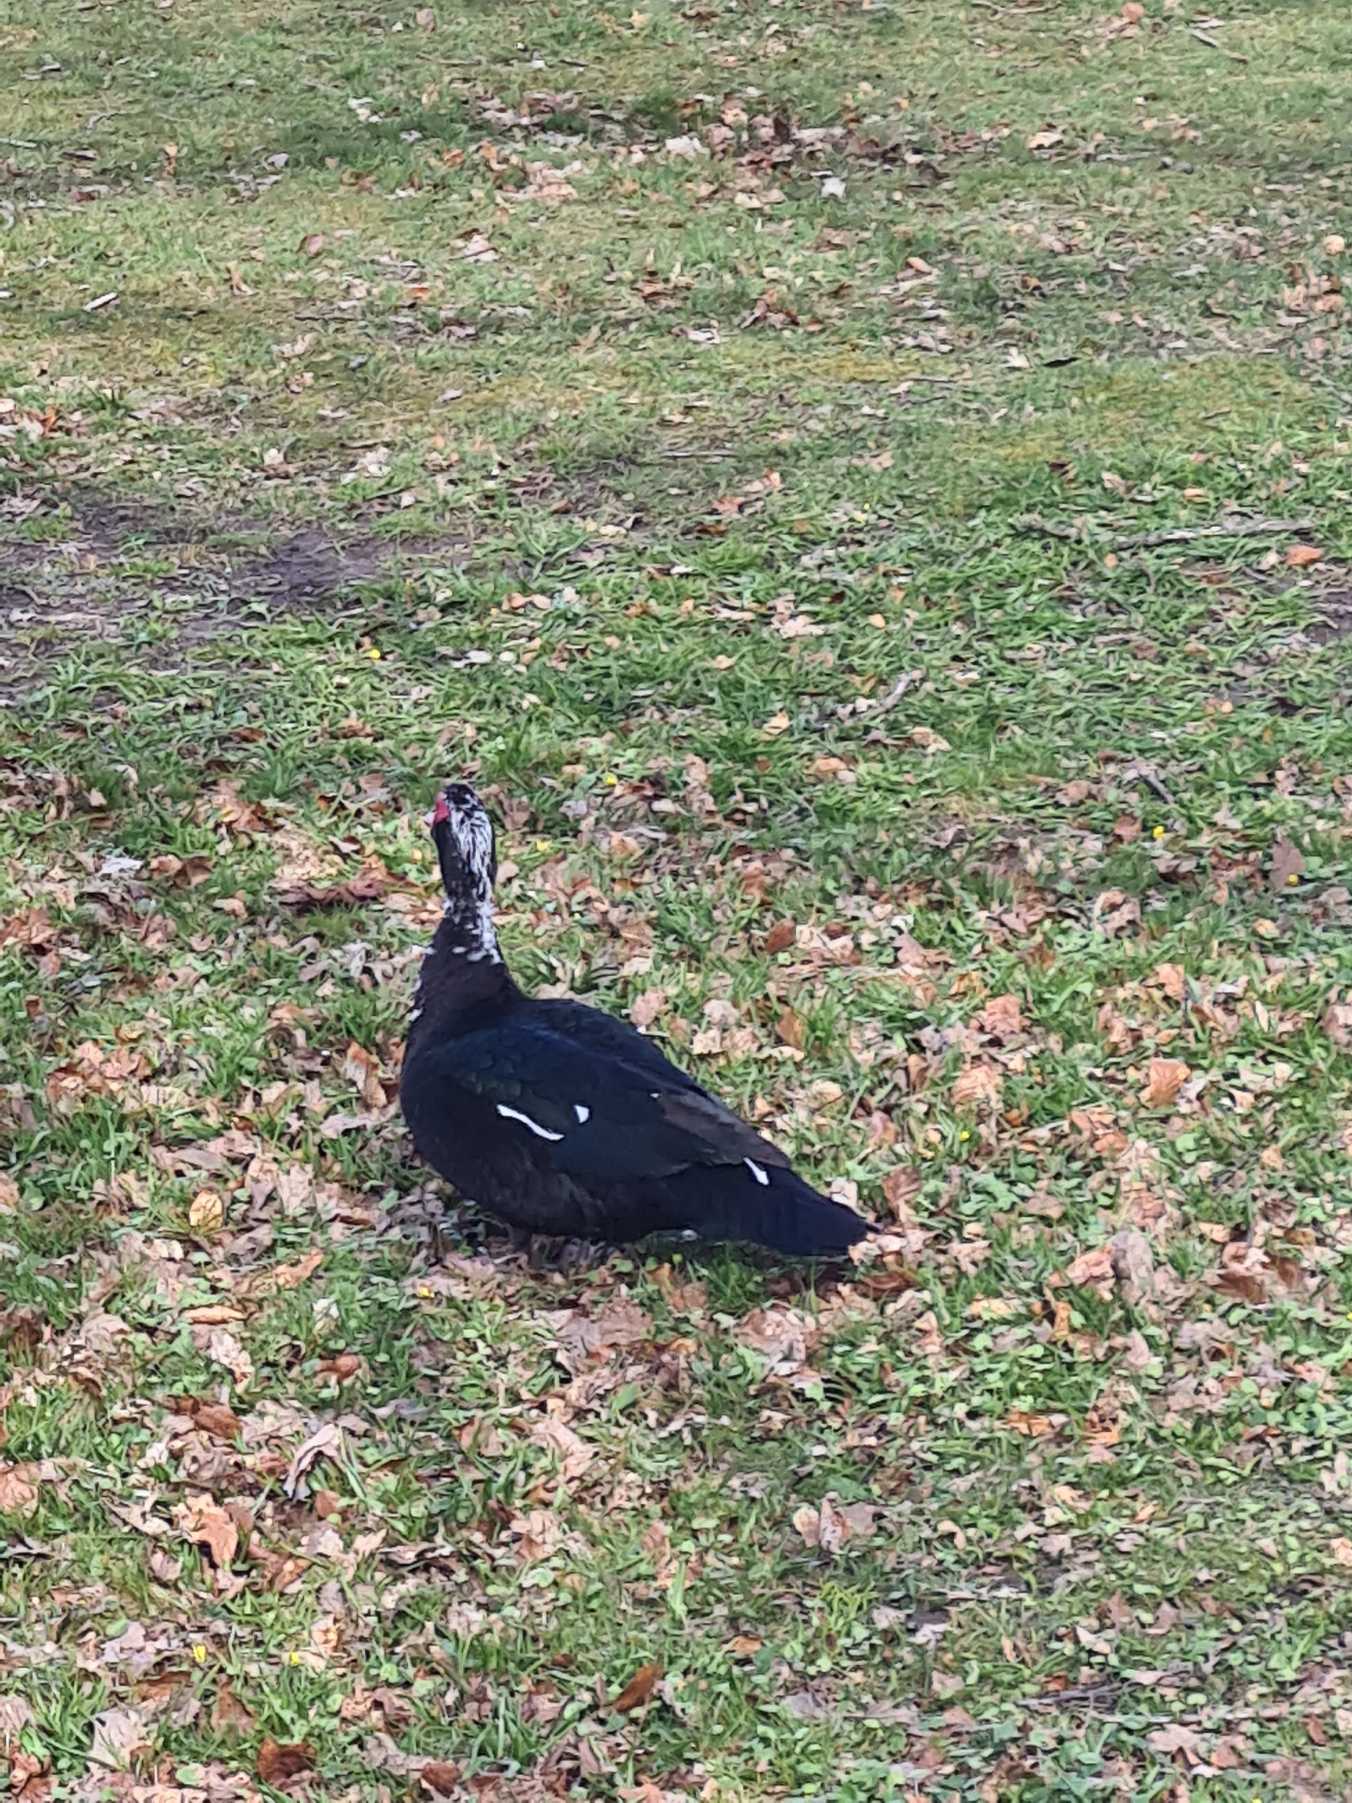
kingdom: Animalia
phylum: Chordata
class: Aves
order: Anseriformes
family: Anatidae
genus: Cairina
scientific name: Cairina moschata
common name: Moskusand
